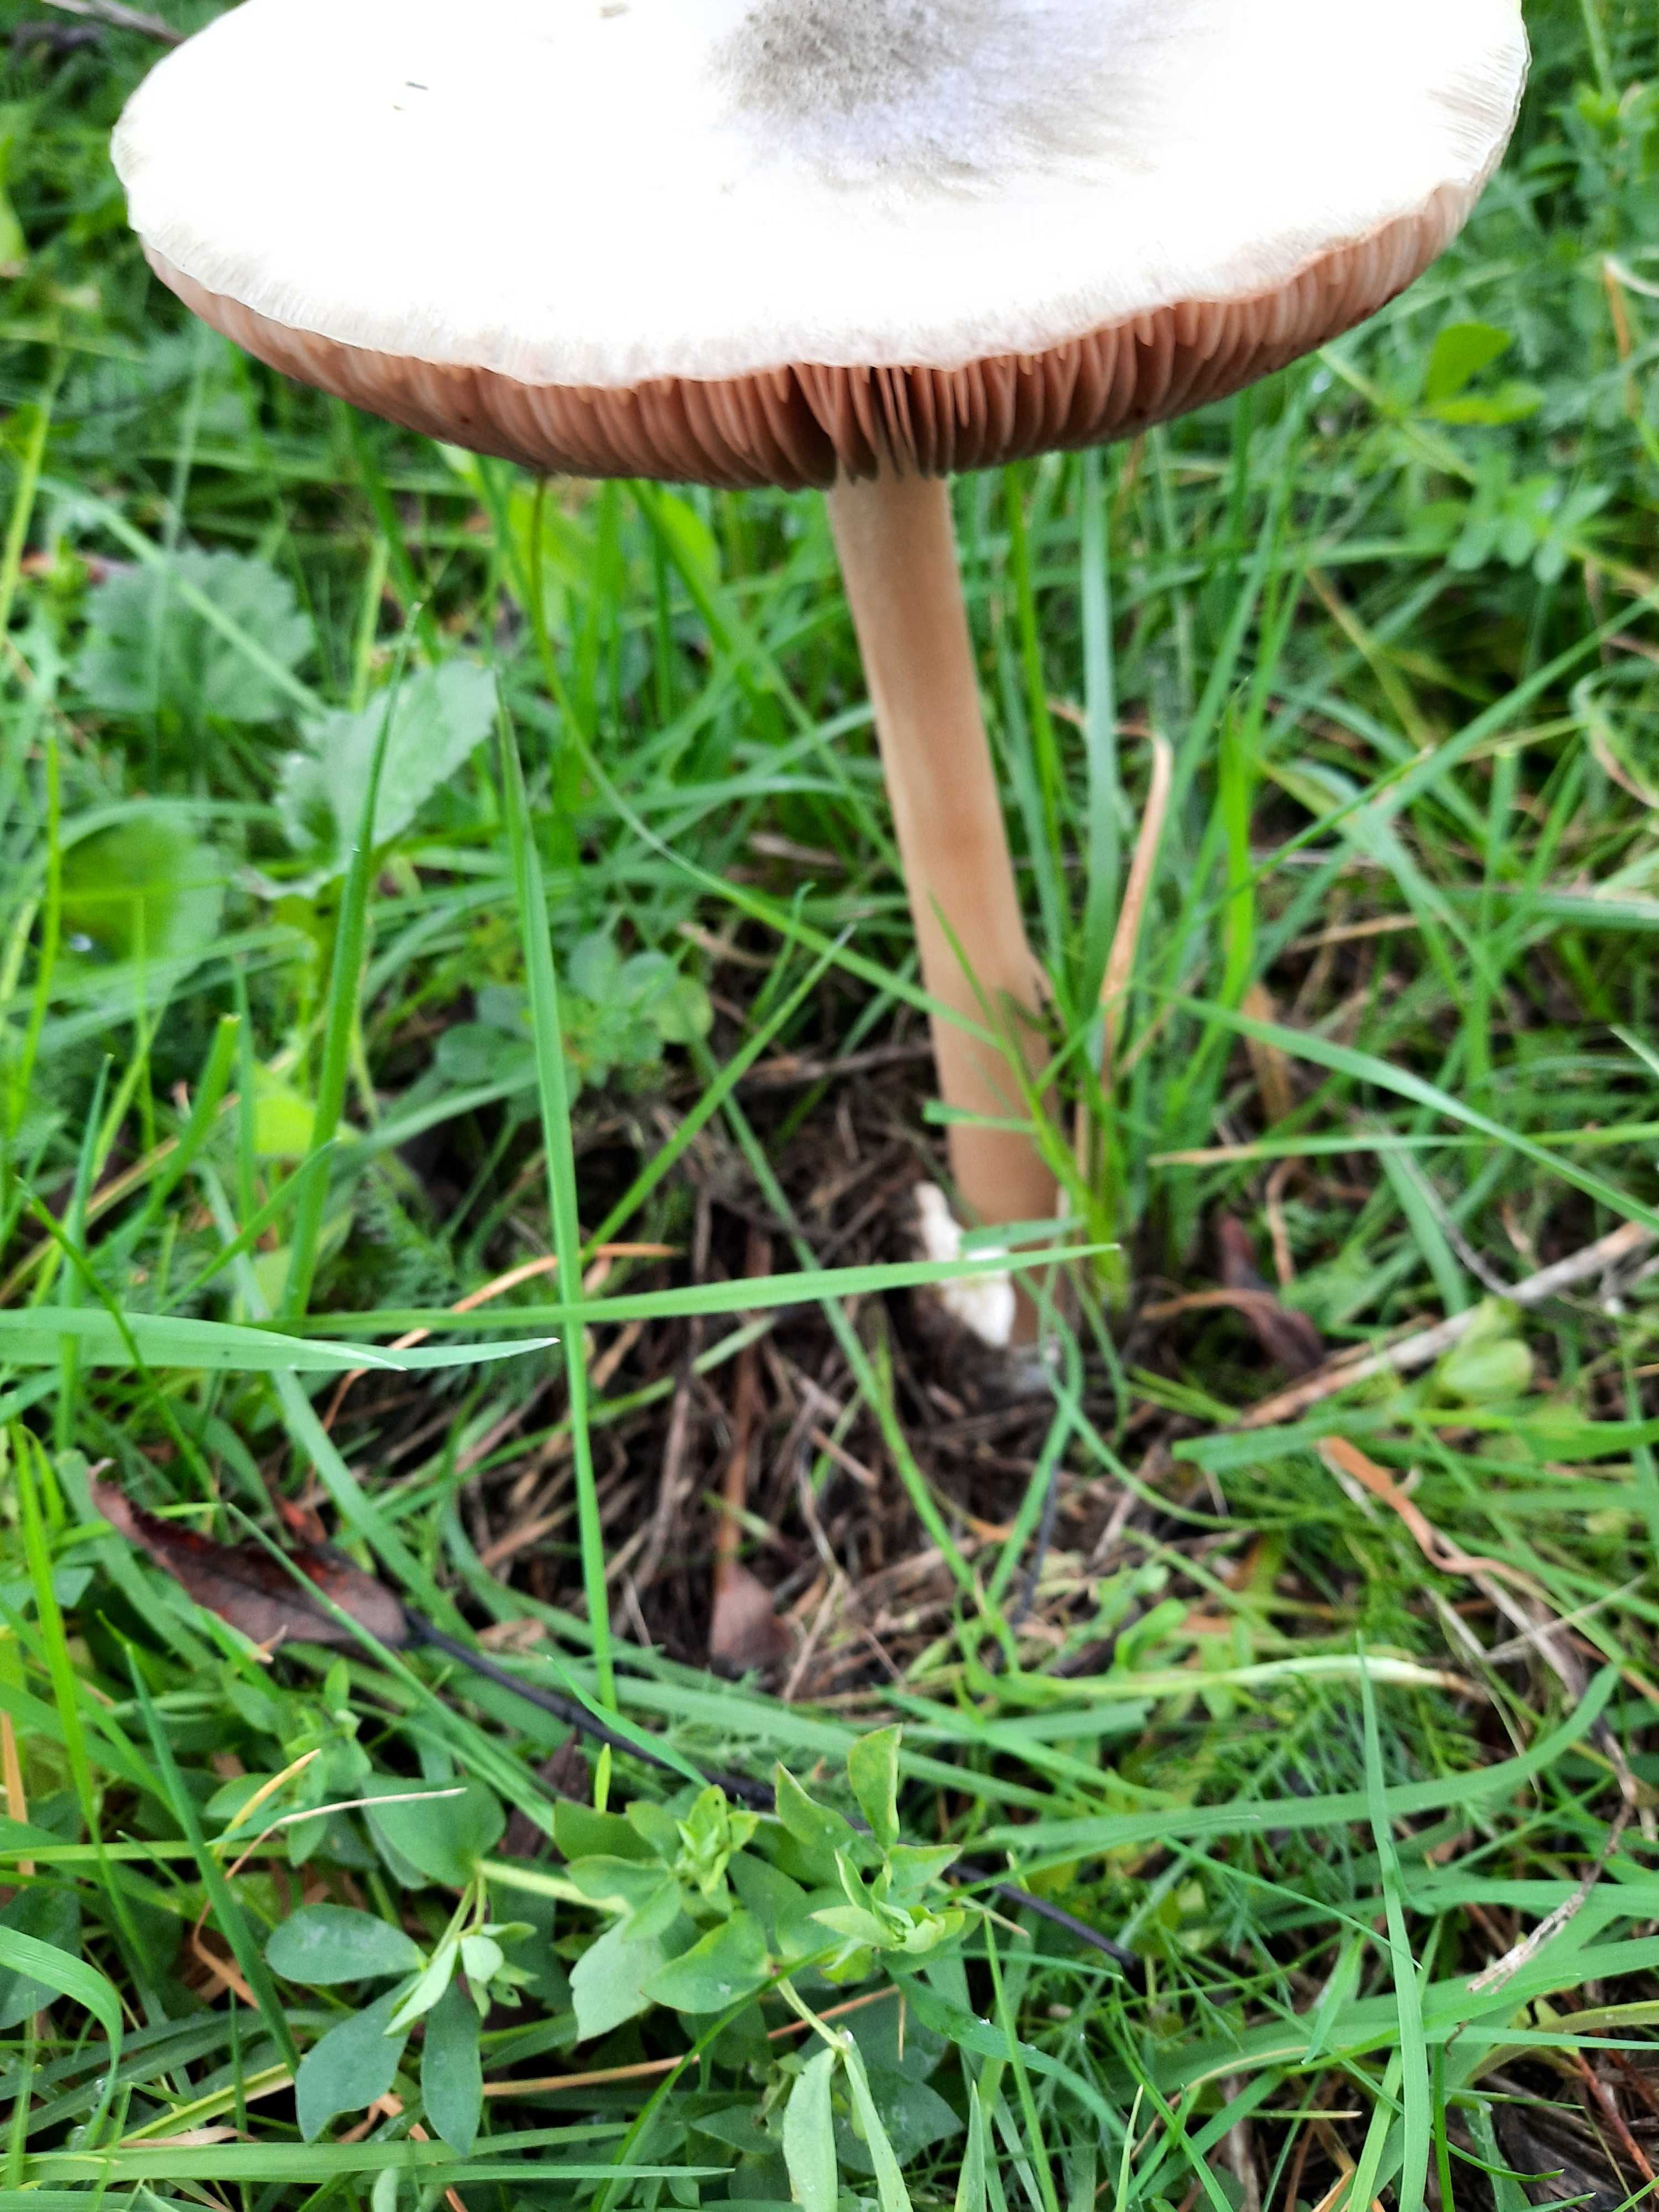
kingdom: Fungi
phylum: Basidiomycota
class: Agaricomycetes
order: Agaricales
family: Pluteaceae
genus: Volvopluteus
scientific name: Volvopluteus gloiocephalus
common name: høj posesvamp
